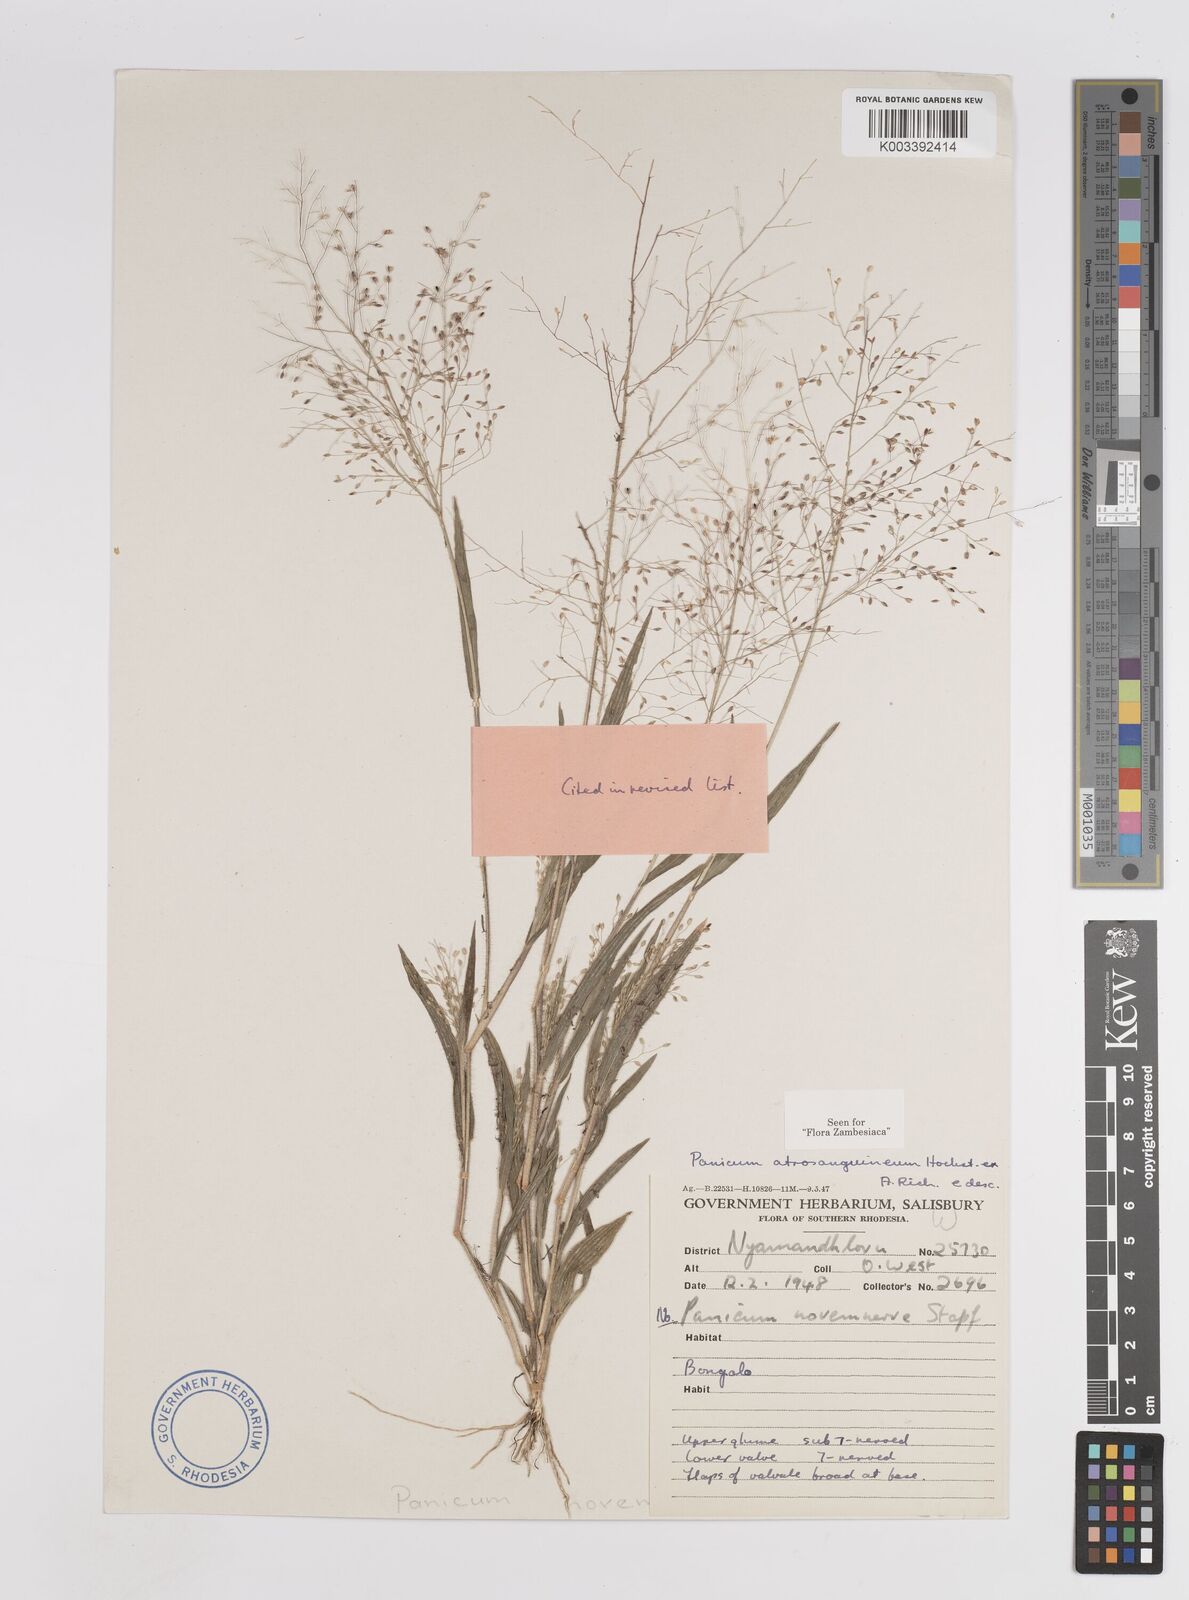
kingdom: Plantae
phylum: Tracheophyta
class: Liliopsida
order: Poales
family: Poaceae
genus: Panicum
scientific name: Panicum atrosanguineum
